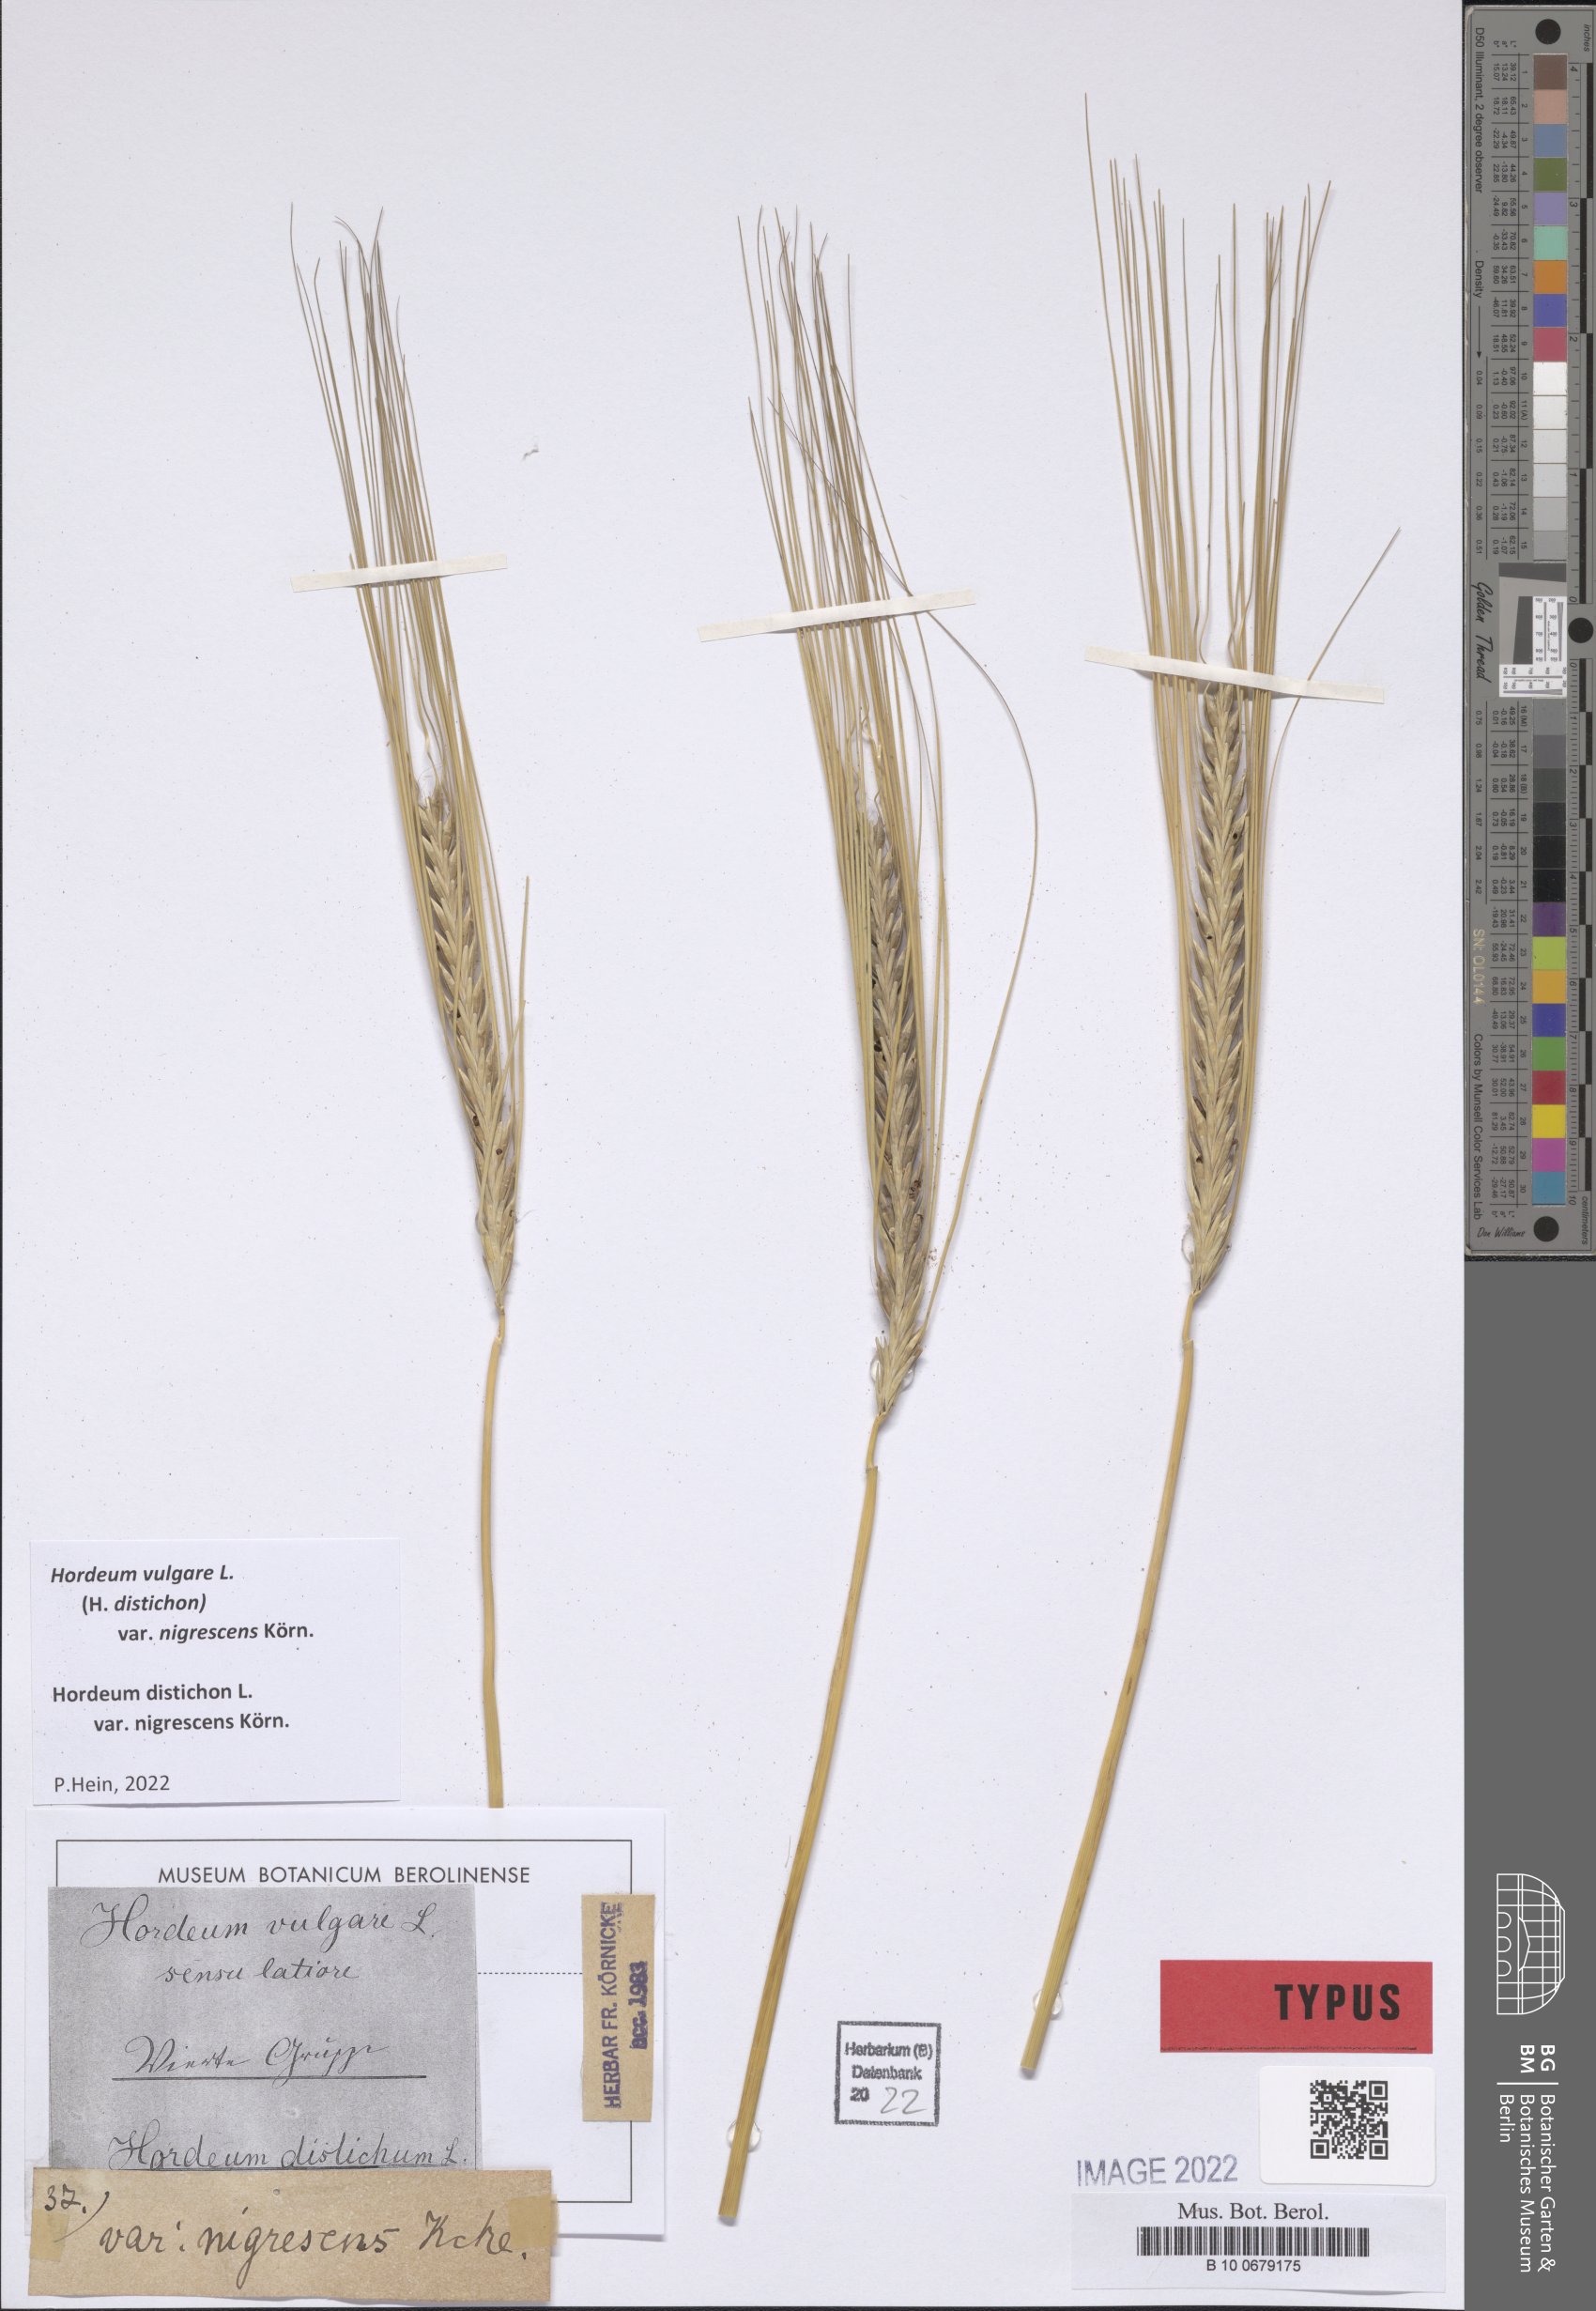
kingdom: Plantae
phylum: Tracheophyta
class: Liliopsida
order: Poales
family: Poaceae
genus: Hordeum
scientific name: Hordeum vulgare
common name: Common barley
